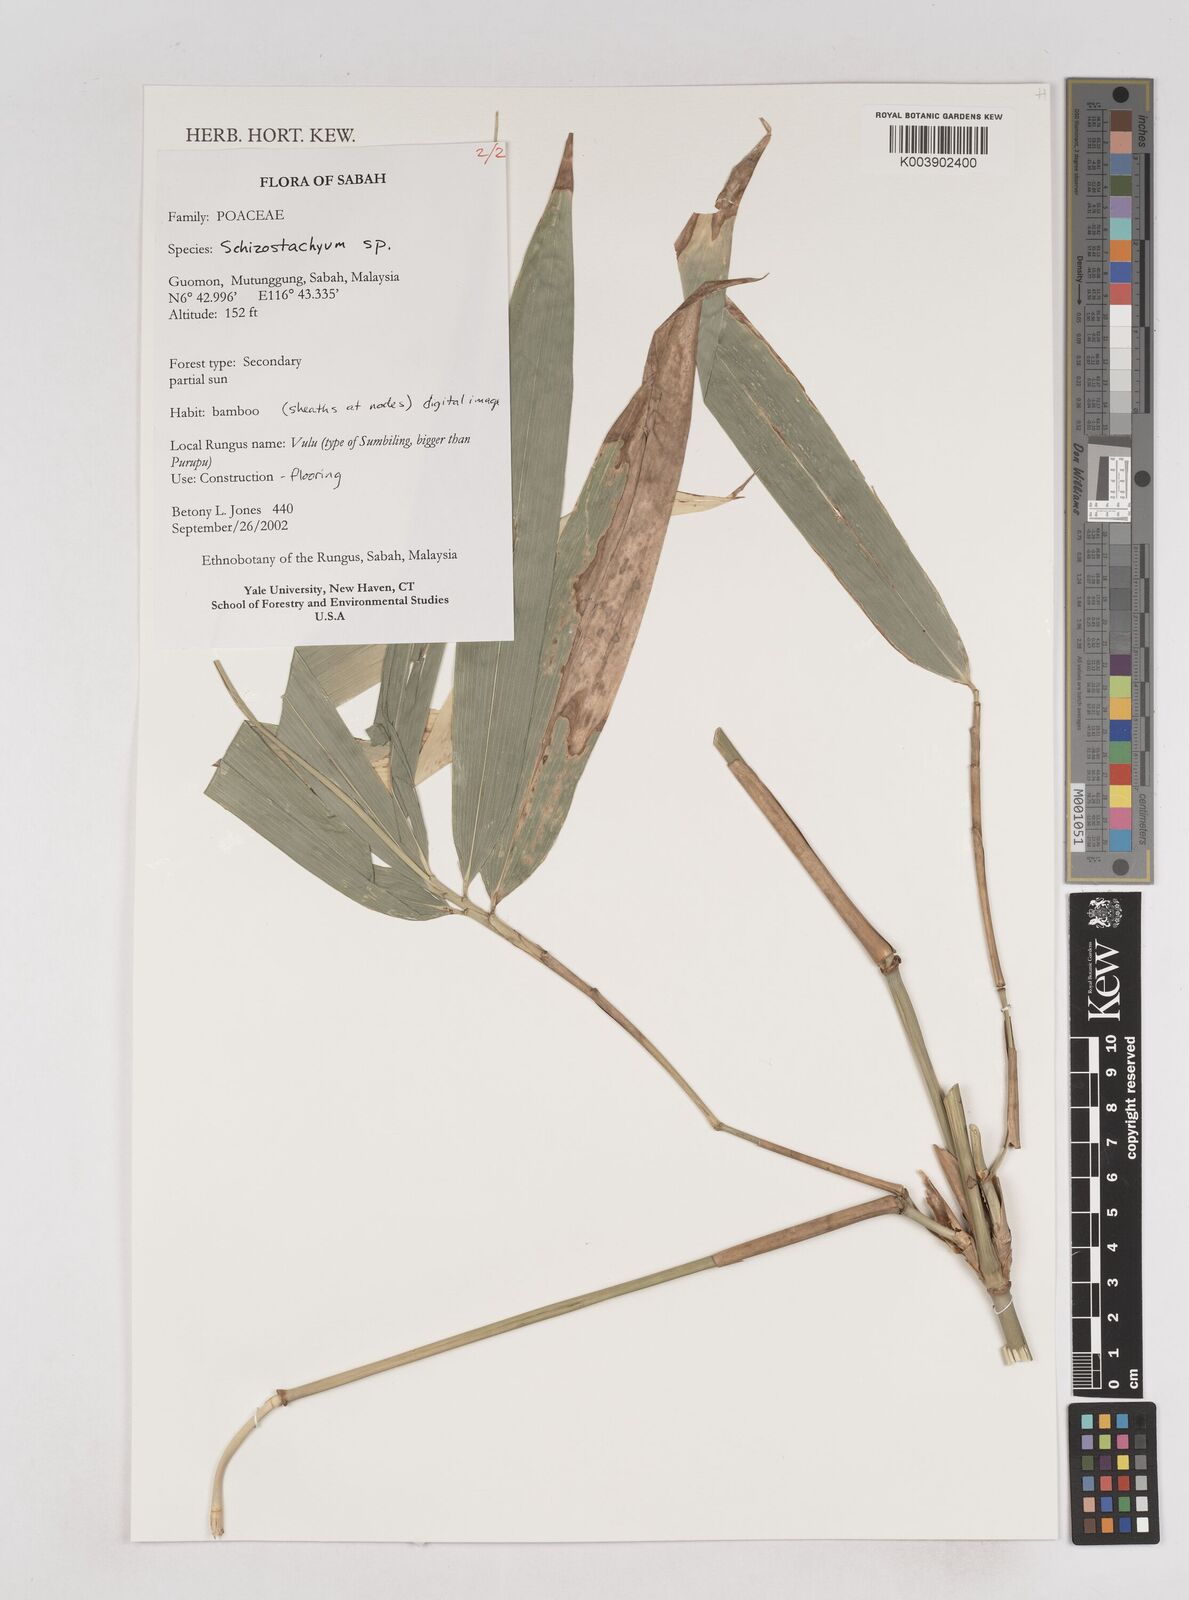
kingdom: Plantae
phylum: Tracheophyta
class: Liliopsida
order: Poales
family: Poaceae
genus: Schizostachyum
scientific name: Schizostachyum
